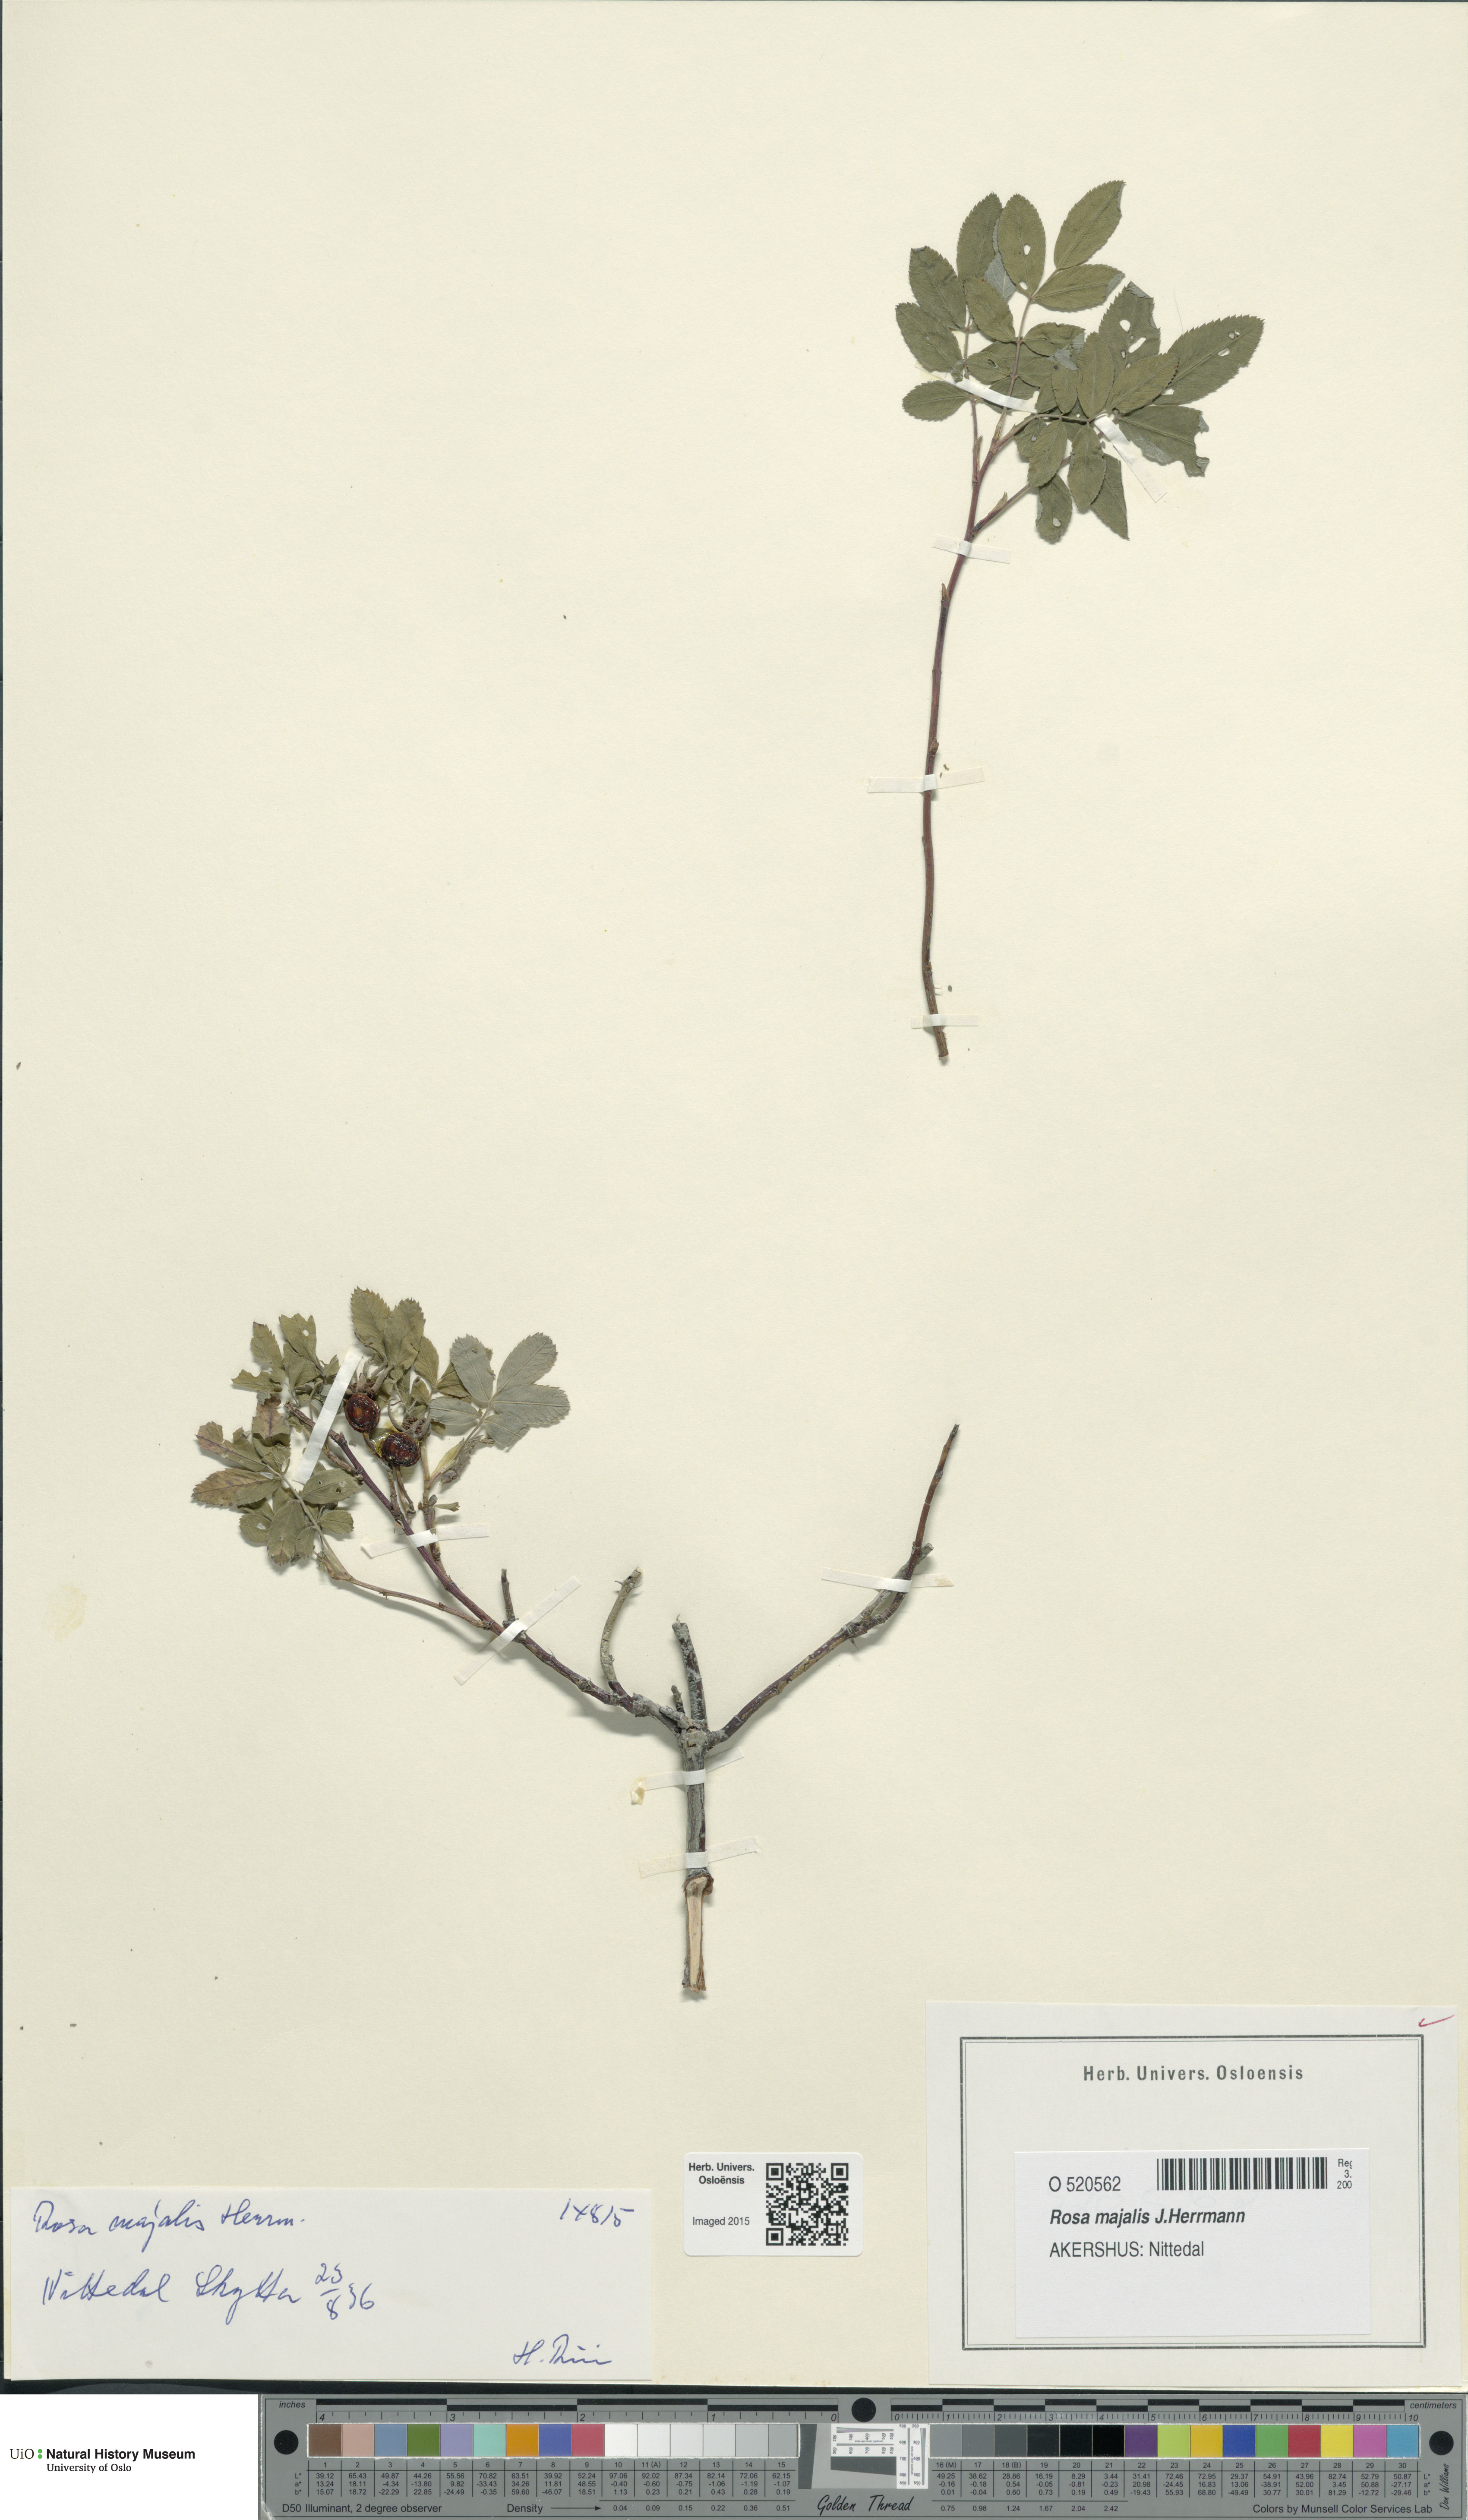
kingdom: Plantae
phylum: Tracheophyta
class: Magnoliopsida
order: Rosales
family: Rosaceae
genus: Rosa
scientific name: Rosa majalis
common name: Cinnamon rose
